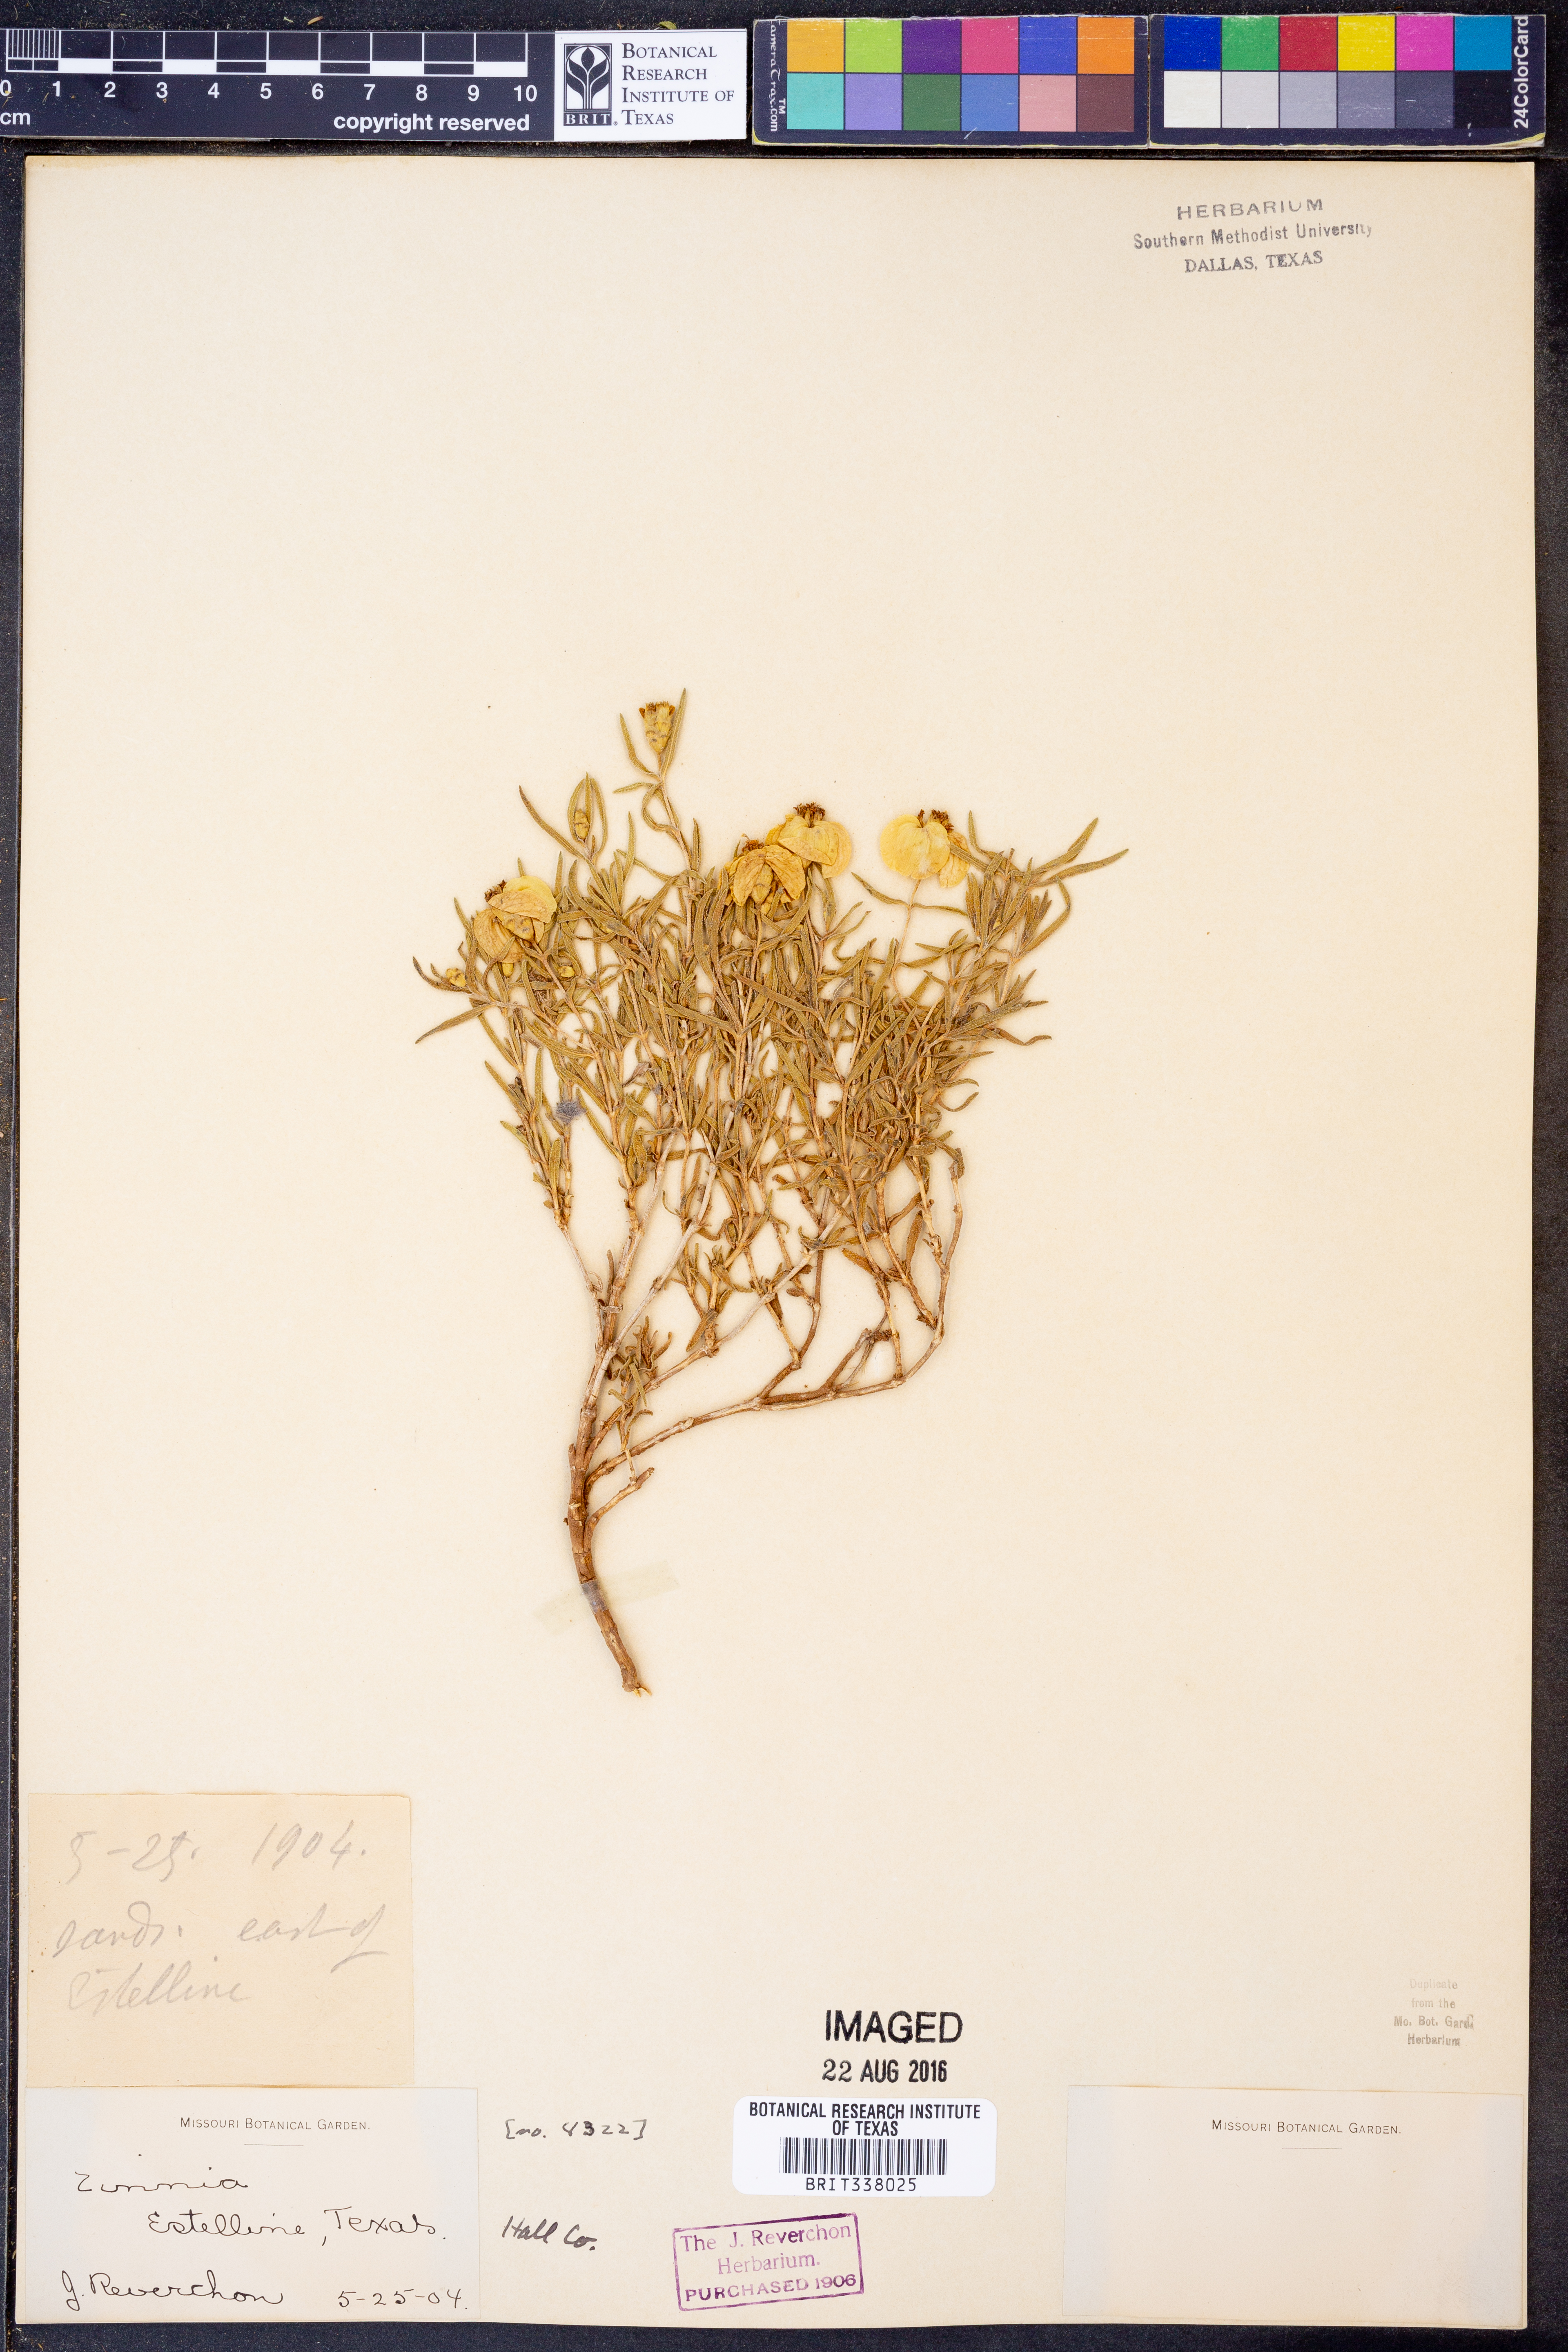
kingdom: Plantae
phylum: Tracheophyta
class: Magnoliopsida
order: Asterales
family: Asteraceae
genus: Zinnia
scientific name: Zinnia
